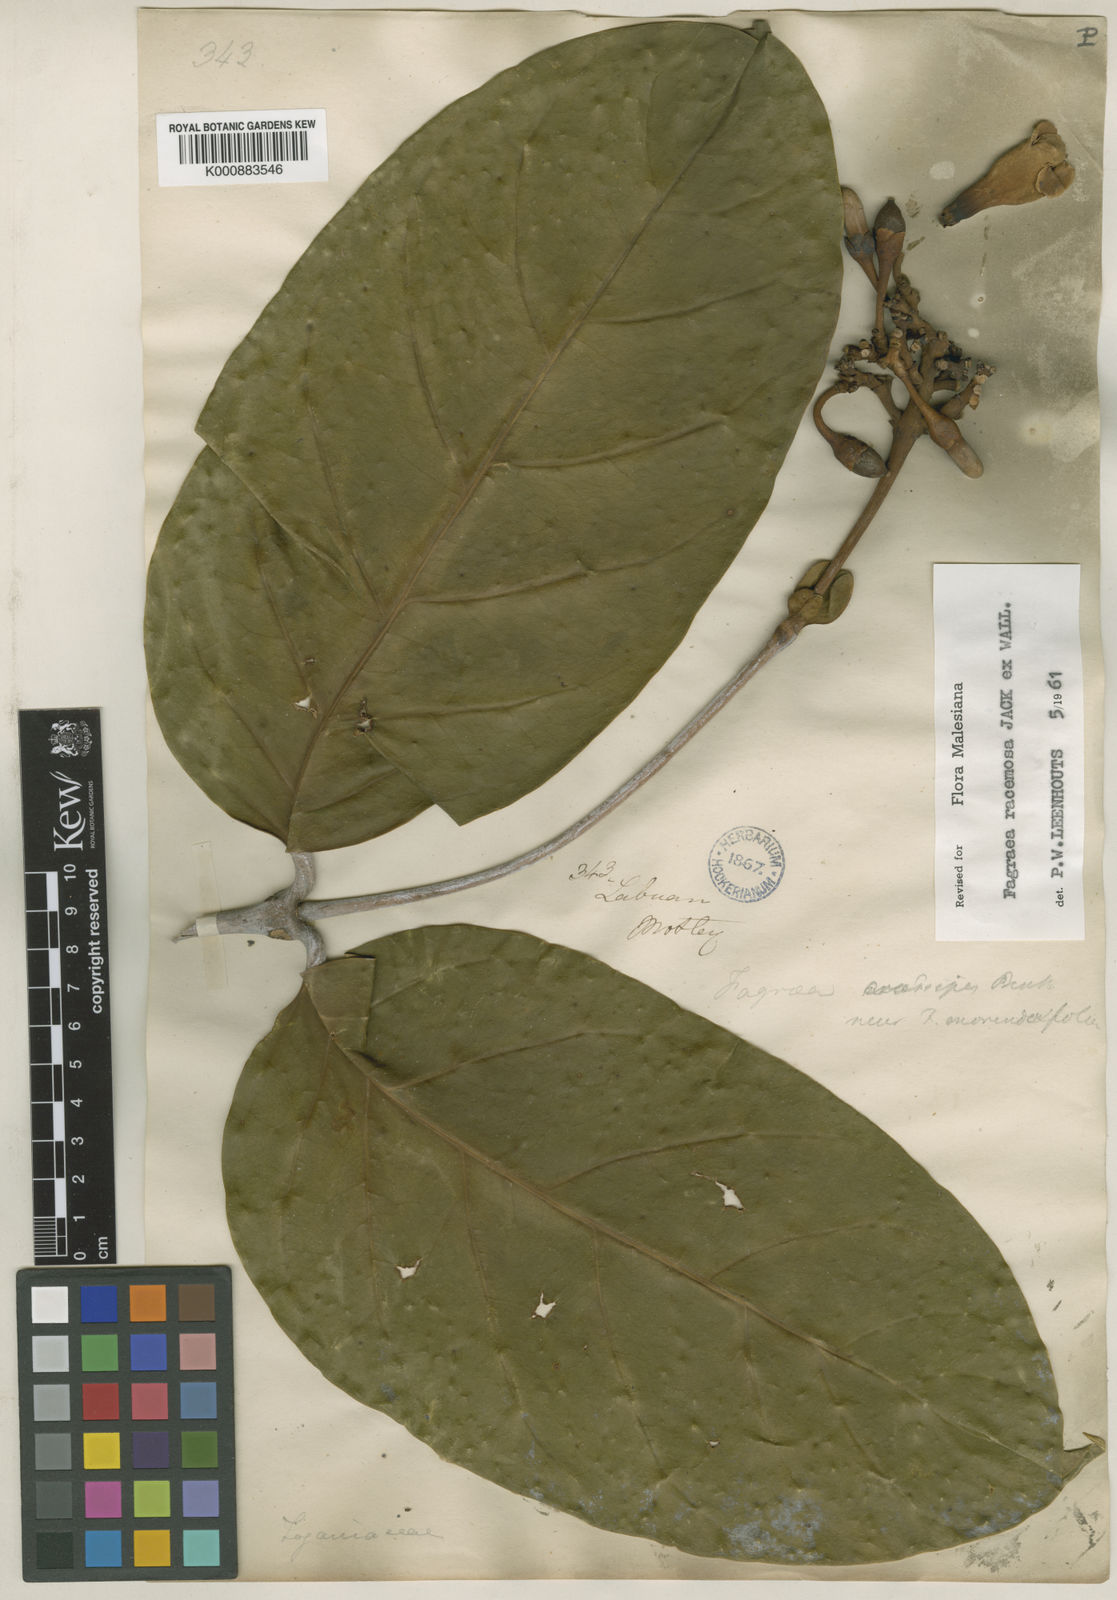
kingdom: Plantae
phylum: Tracheophyta
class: Magnoliopsida
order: Gentianales
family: Gentianaceae
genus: Utania
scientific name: Utania cuspidata
